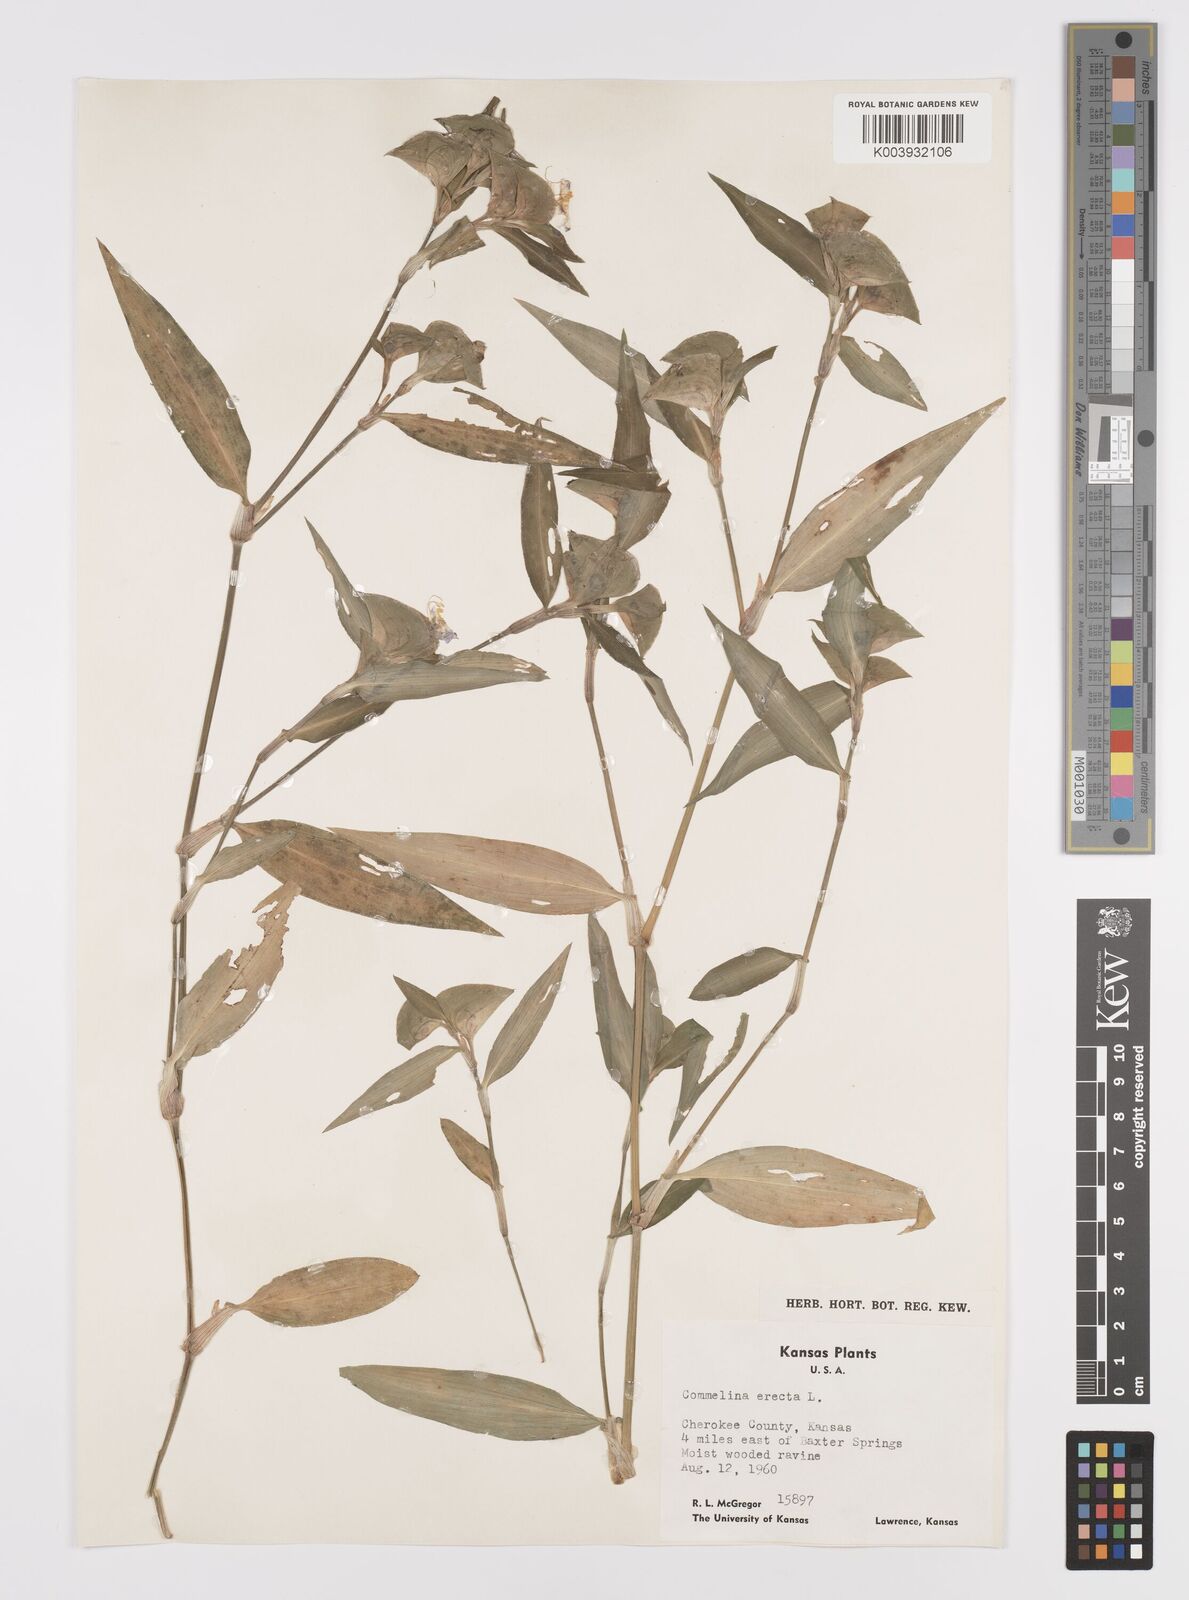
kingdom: Plantae
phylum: Tracheophyta
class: Liliopsida
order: Commelinales
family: Commelinaceae
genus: Commelina
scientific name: Commelina erecta
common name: Blousel blommetjie
